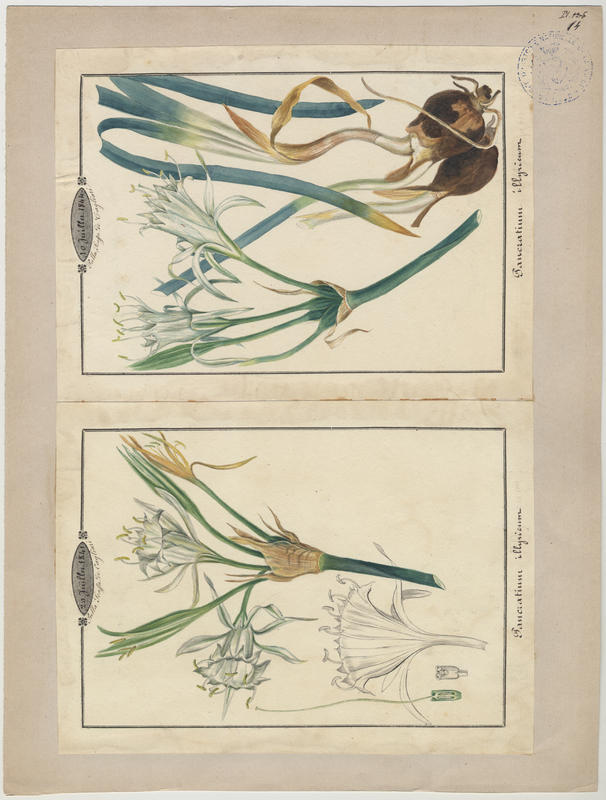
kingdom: Plantae
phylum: Tracheophyta
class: Liliopsida
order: Asparagales
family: Amaryllidaceae
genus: Pancratium
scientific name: Pancratium illyricum
